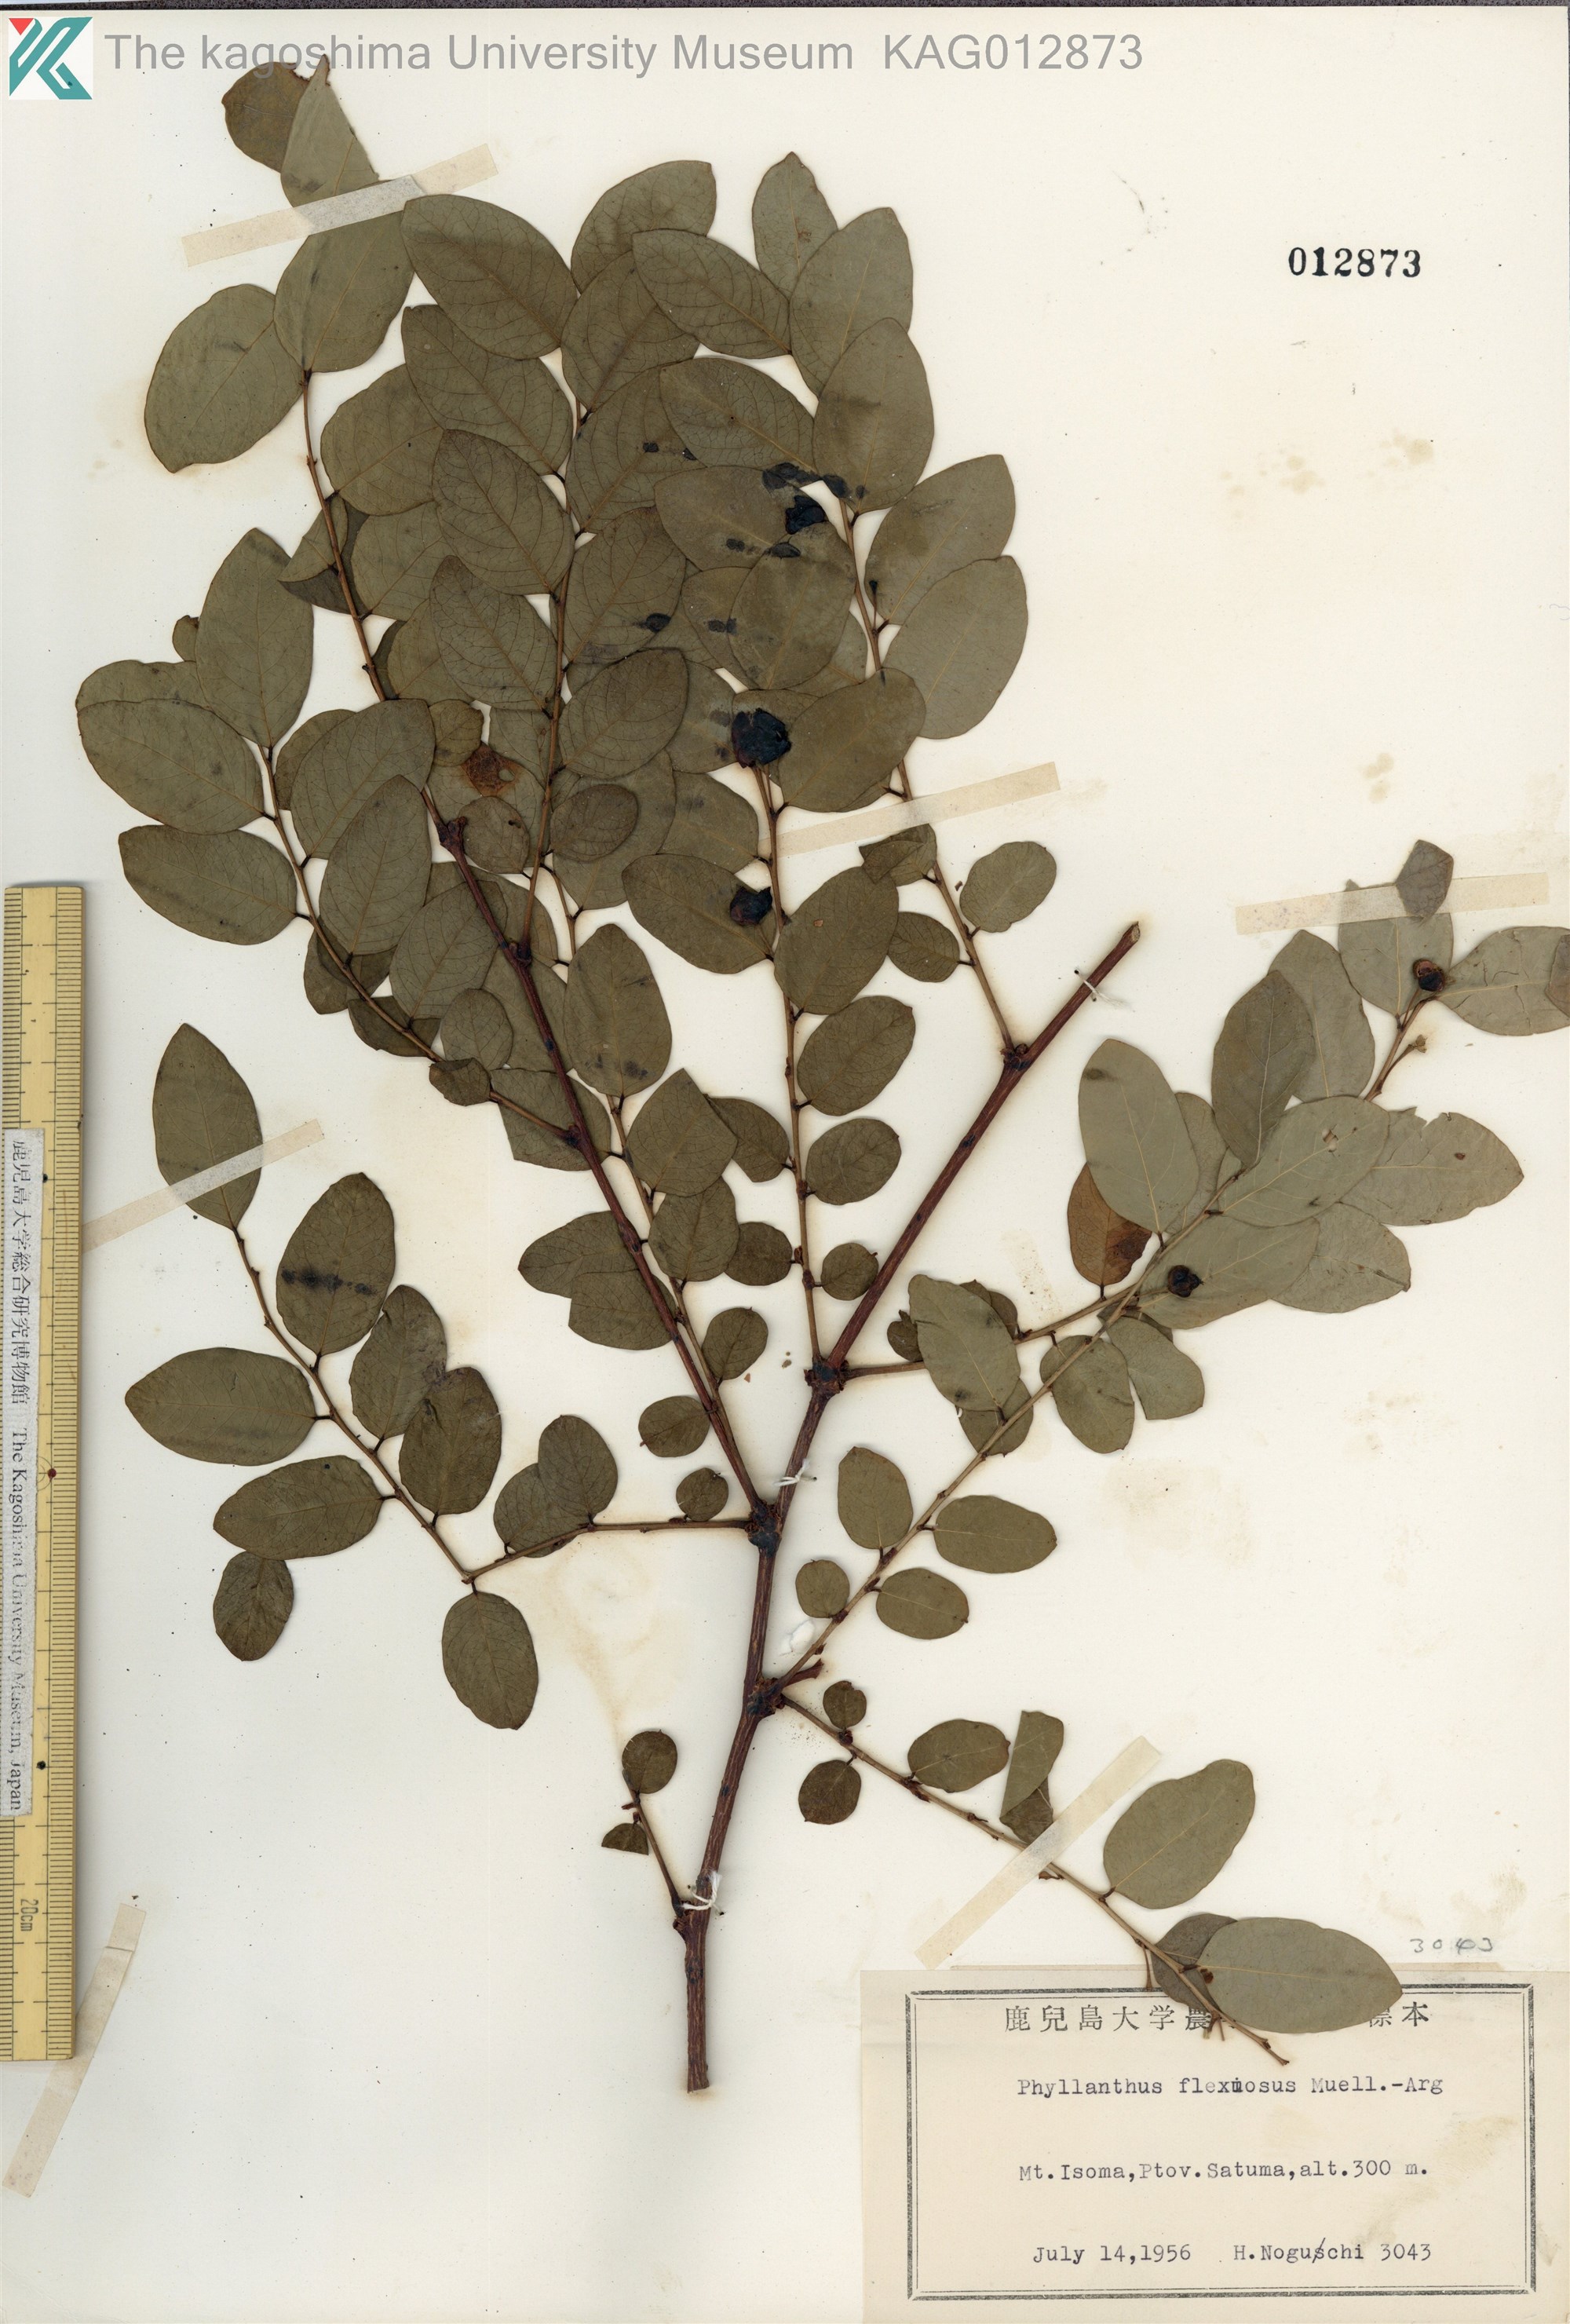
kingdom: Plantae
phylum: Tracheophyta
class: Magnoliopsida
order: Malpighiales
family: Phyllanthaceae
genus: Phyllanthus
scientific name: Phyllanthus flexuosus
